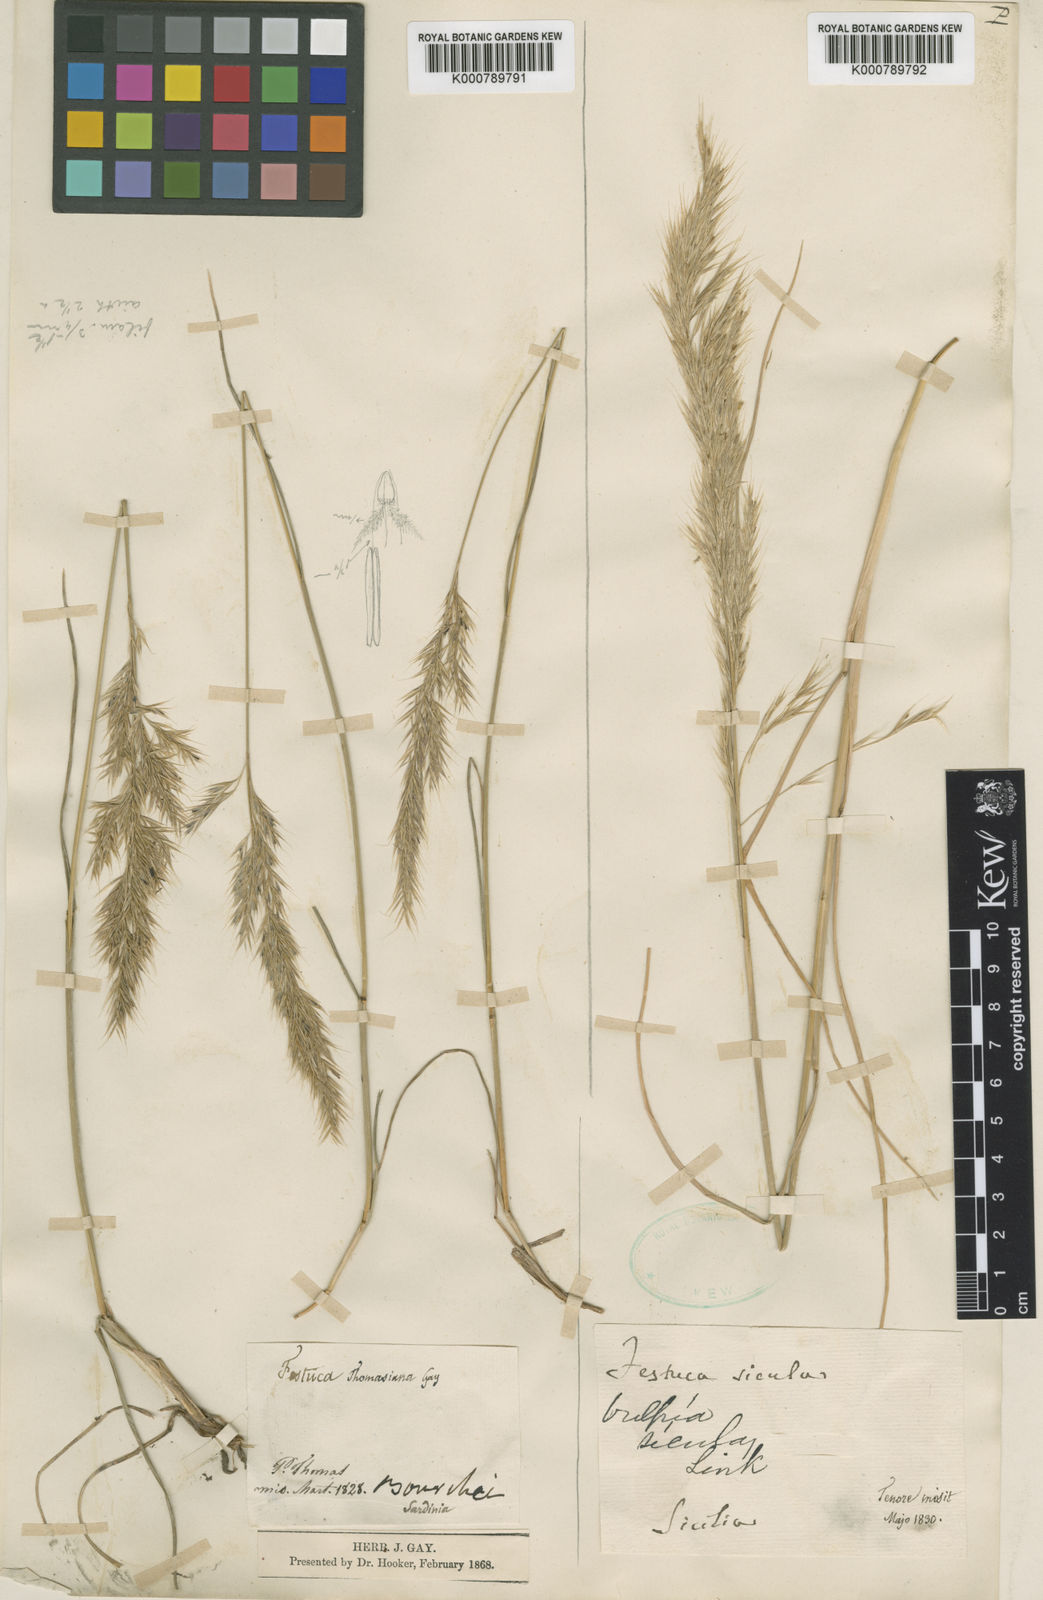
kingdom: Plantae
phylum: Tracheophyta
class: Liliopsida
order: Poales
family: Poaceae
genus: Festuca
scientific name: Festuca sicula
